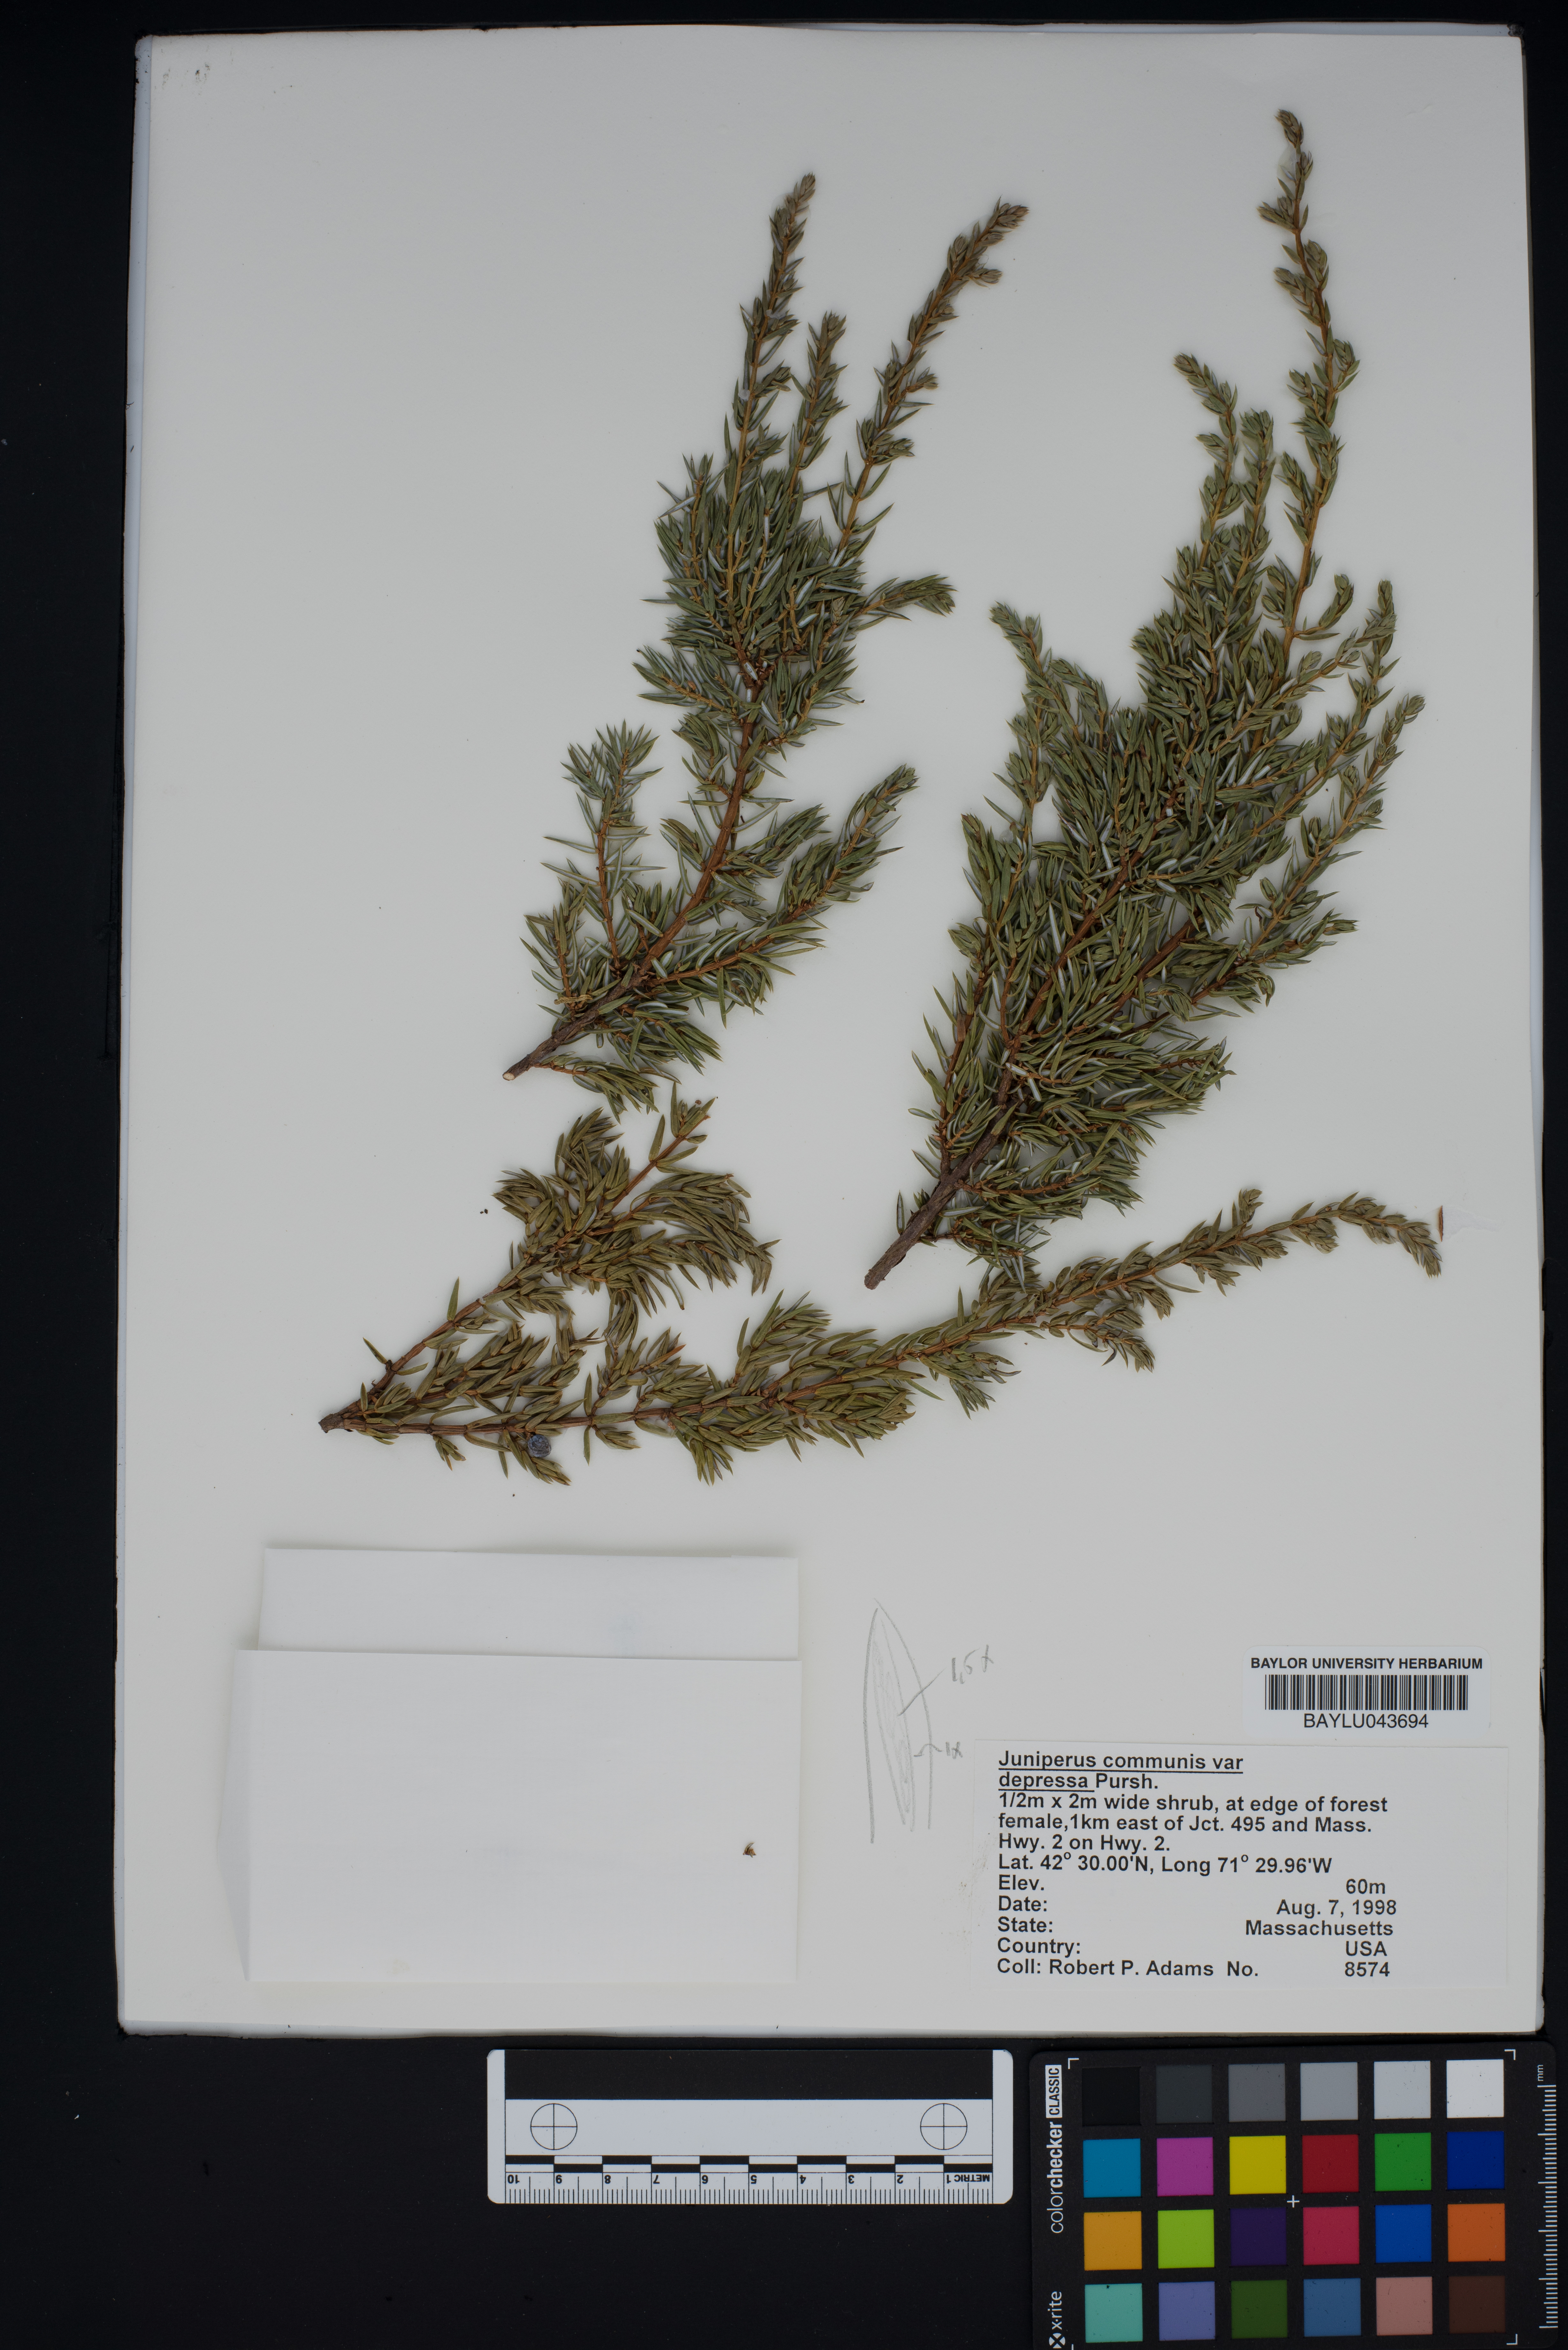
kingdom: Plantae
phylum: Tracheophyta
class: Pinopsida
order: Pinales
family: Cupressaceae
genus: Juniperus
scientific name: Juniperus communis
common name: Common juniper
